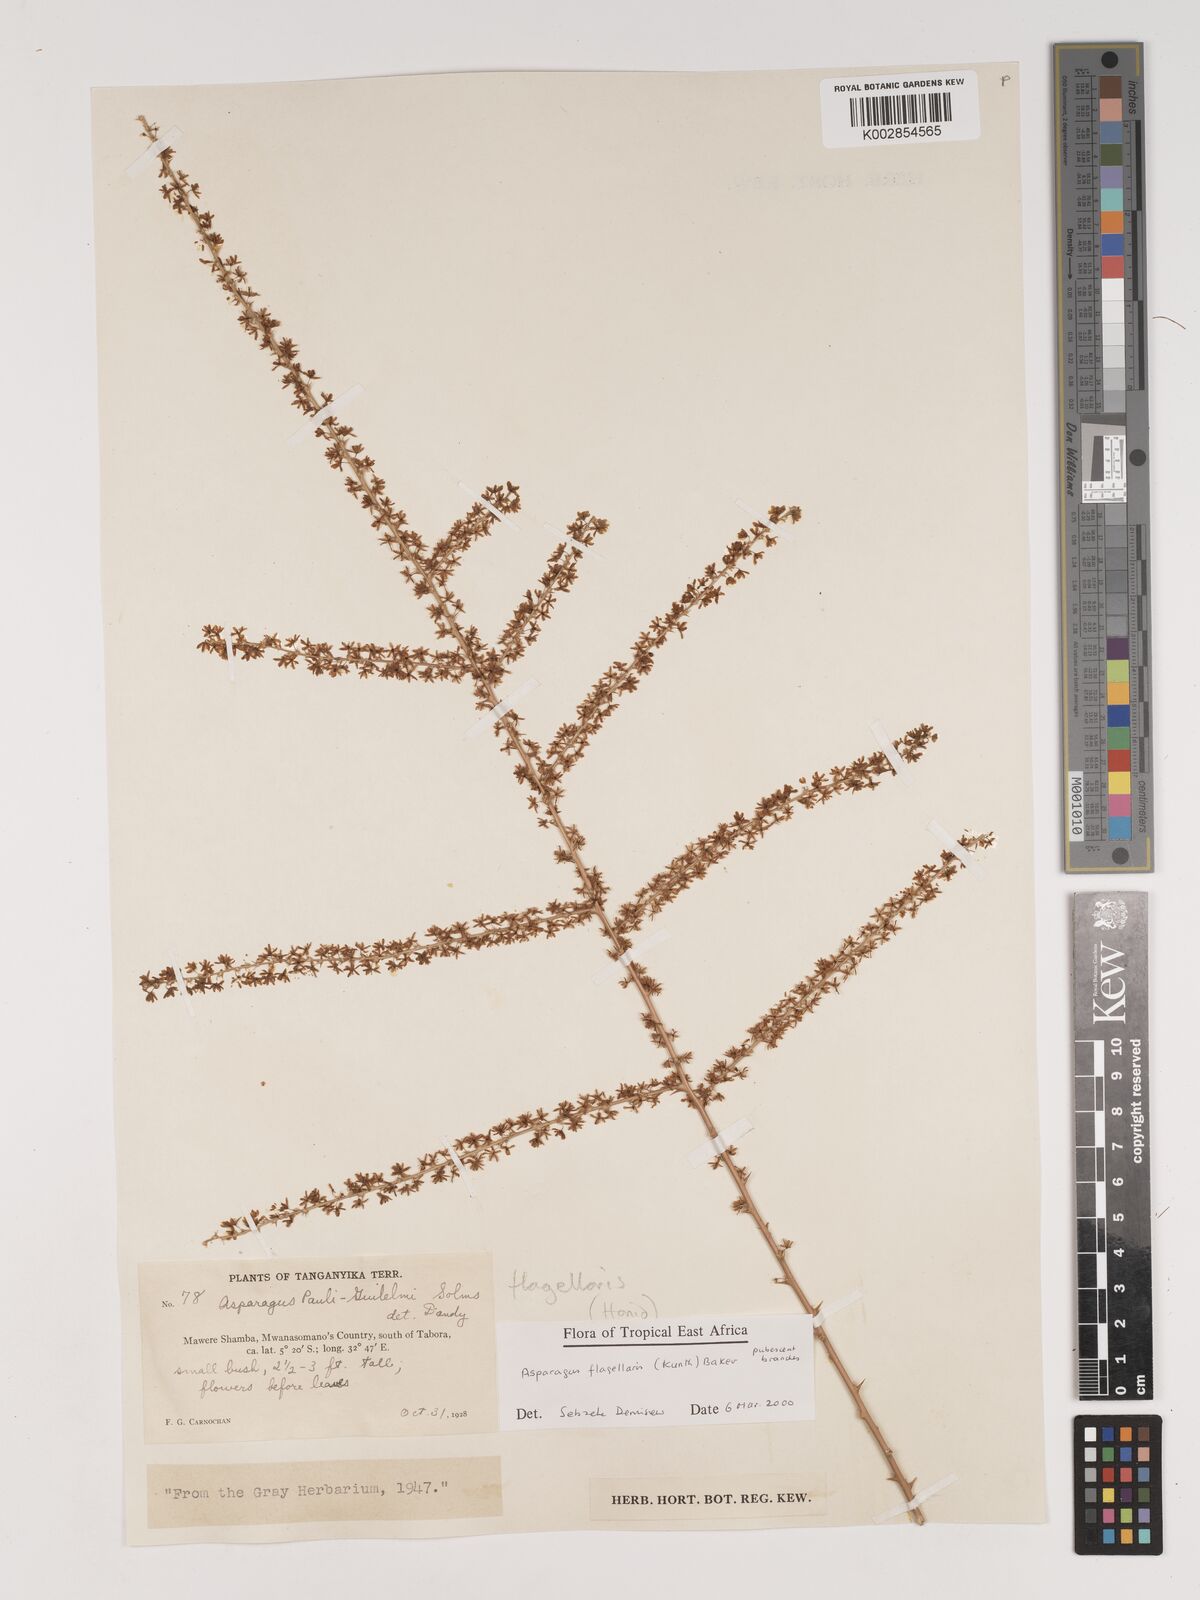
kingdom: Plantae
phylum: Tracheophyta
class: Liliopsida
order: Asparagales
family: Asparagaceae
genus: Asparagus
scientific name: Asparagus flagellaris
